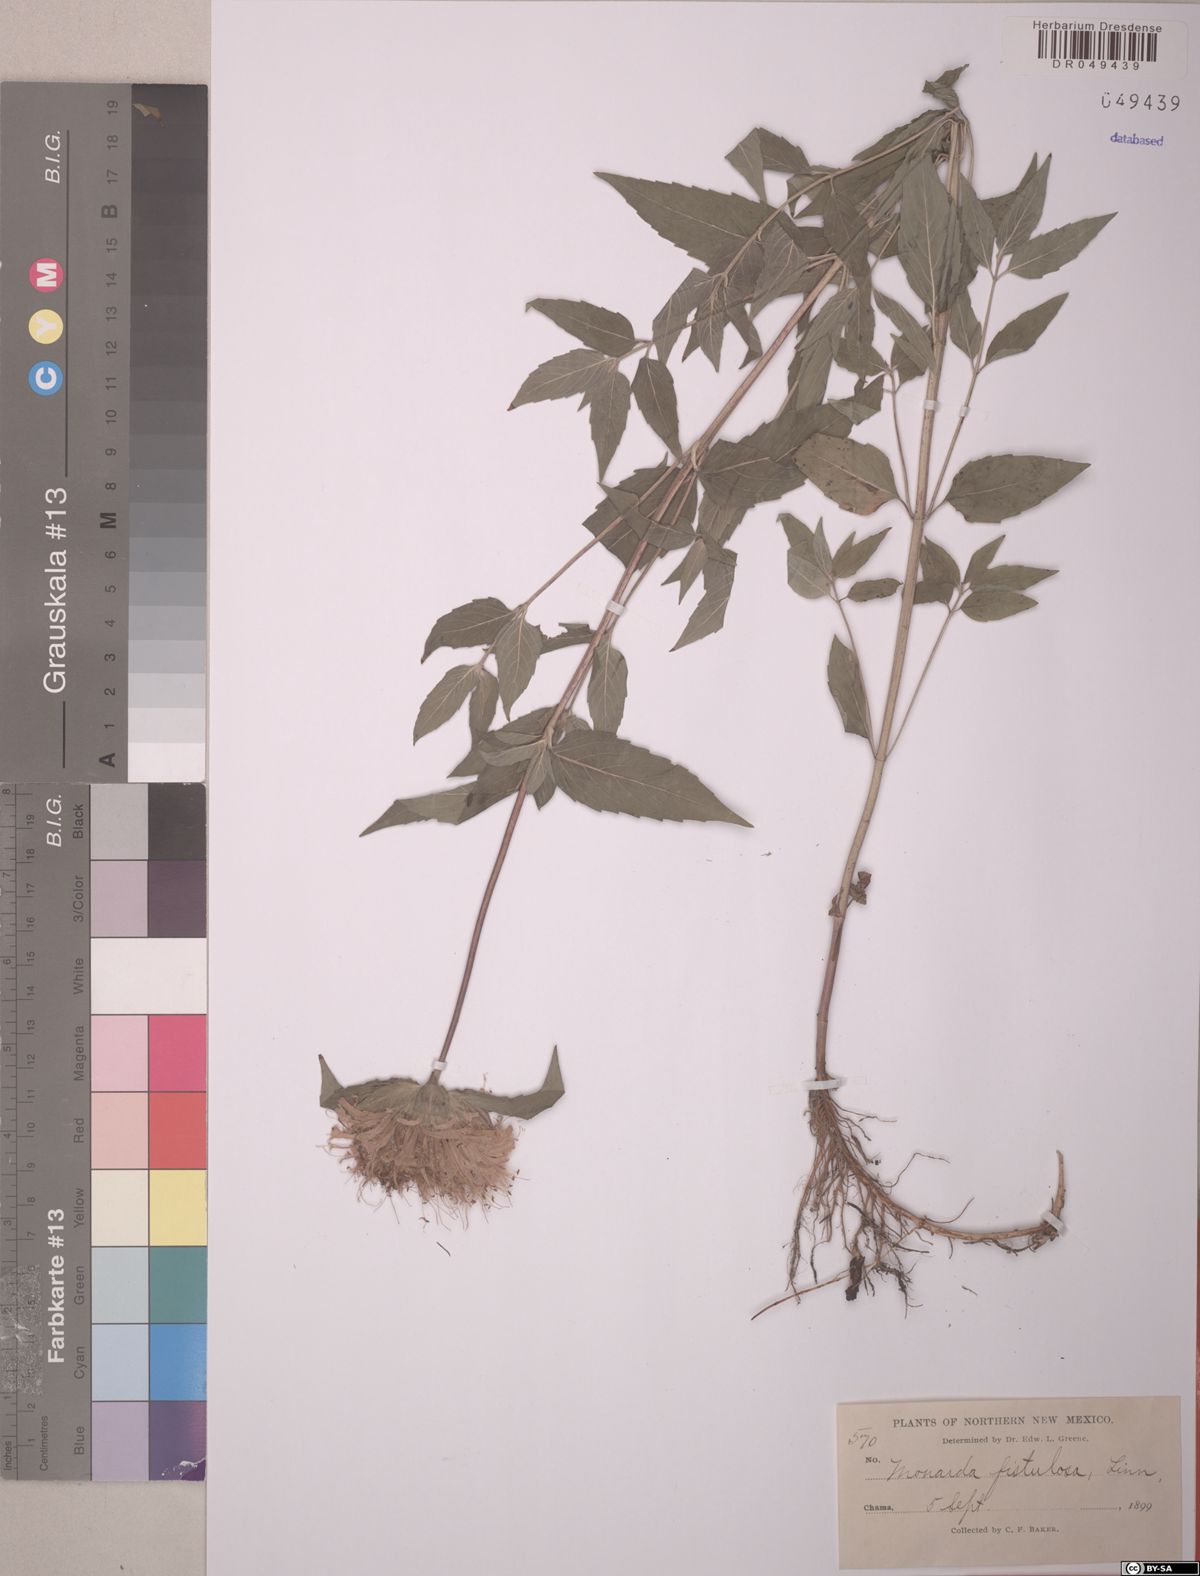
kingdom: Plantae
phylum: Tracheophyta
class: Magnoliopsida
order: Lamiales
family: Lamiaceae
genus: Monarda
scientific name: Monarda fistulosa
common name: Purple beebalm
